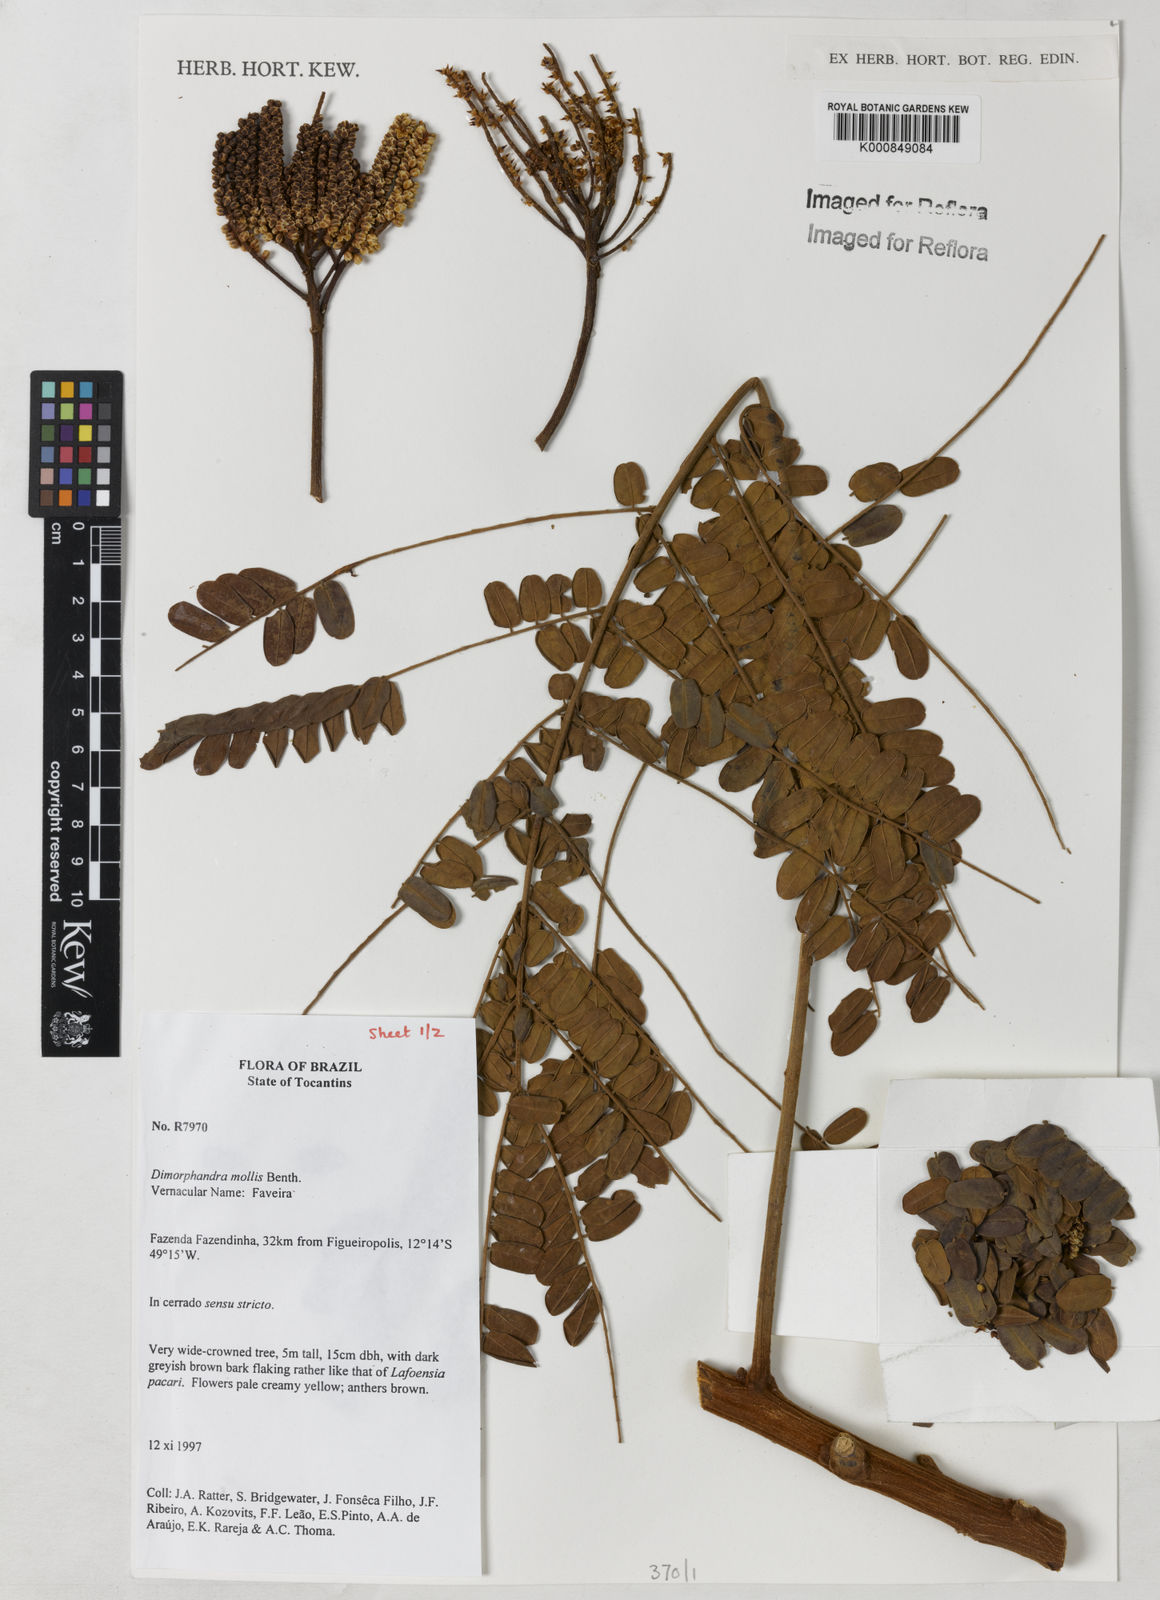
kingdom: Plantae
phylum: Tracheophyta
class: Magnoliopsida
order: Fabales
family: Fabaceae
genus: Dimorphandra
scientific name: Dimorphandra mollis
